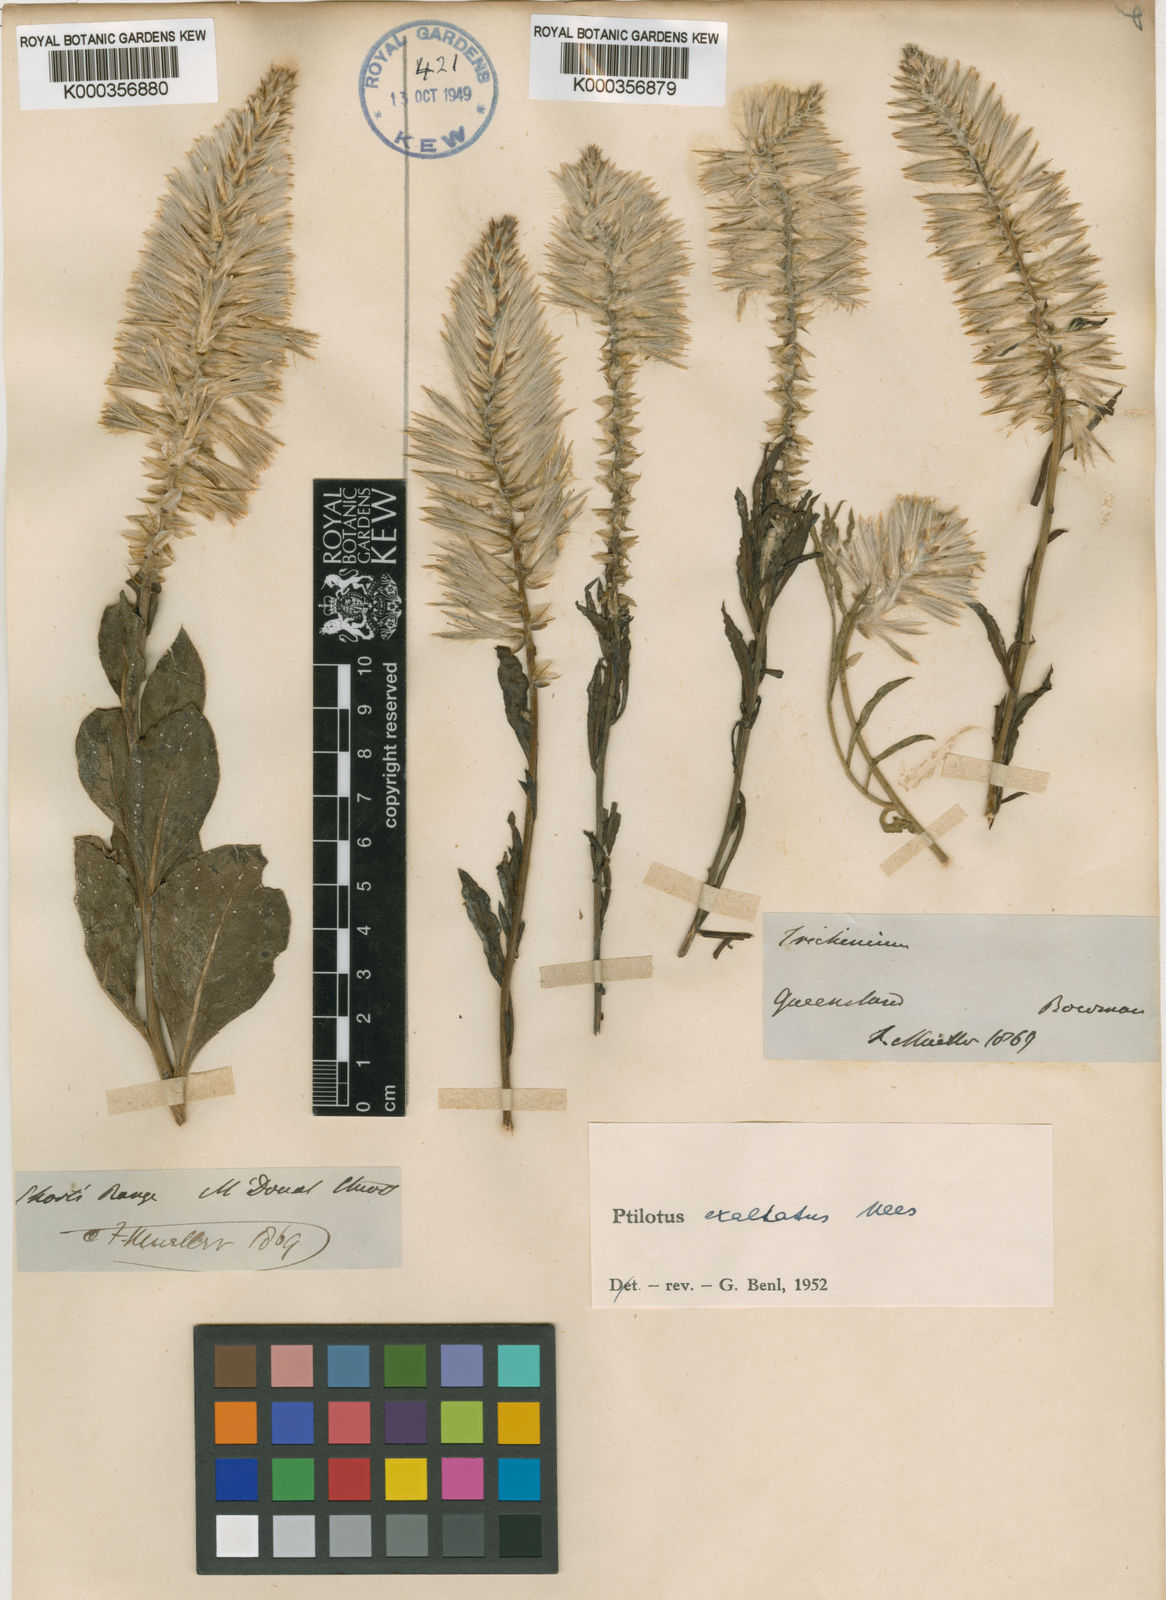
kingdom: Plantae
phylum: Tracheophyta
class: Magnoliopsida
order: Caryophyllales
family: Amaranthaceae
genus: Ptilotus
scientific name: Ptilotus exaltatus
